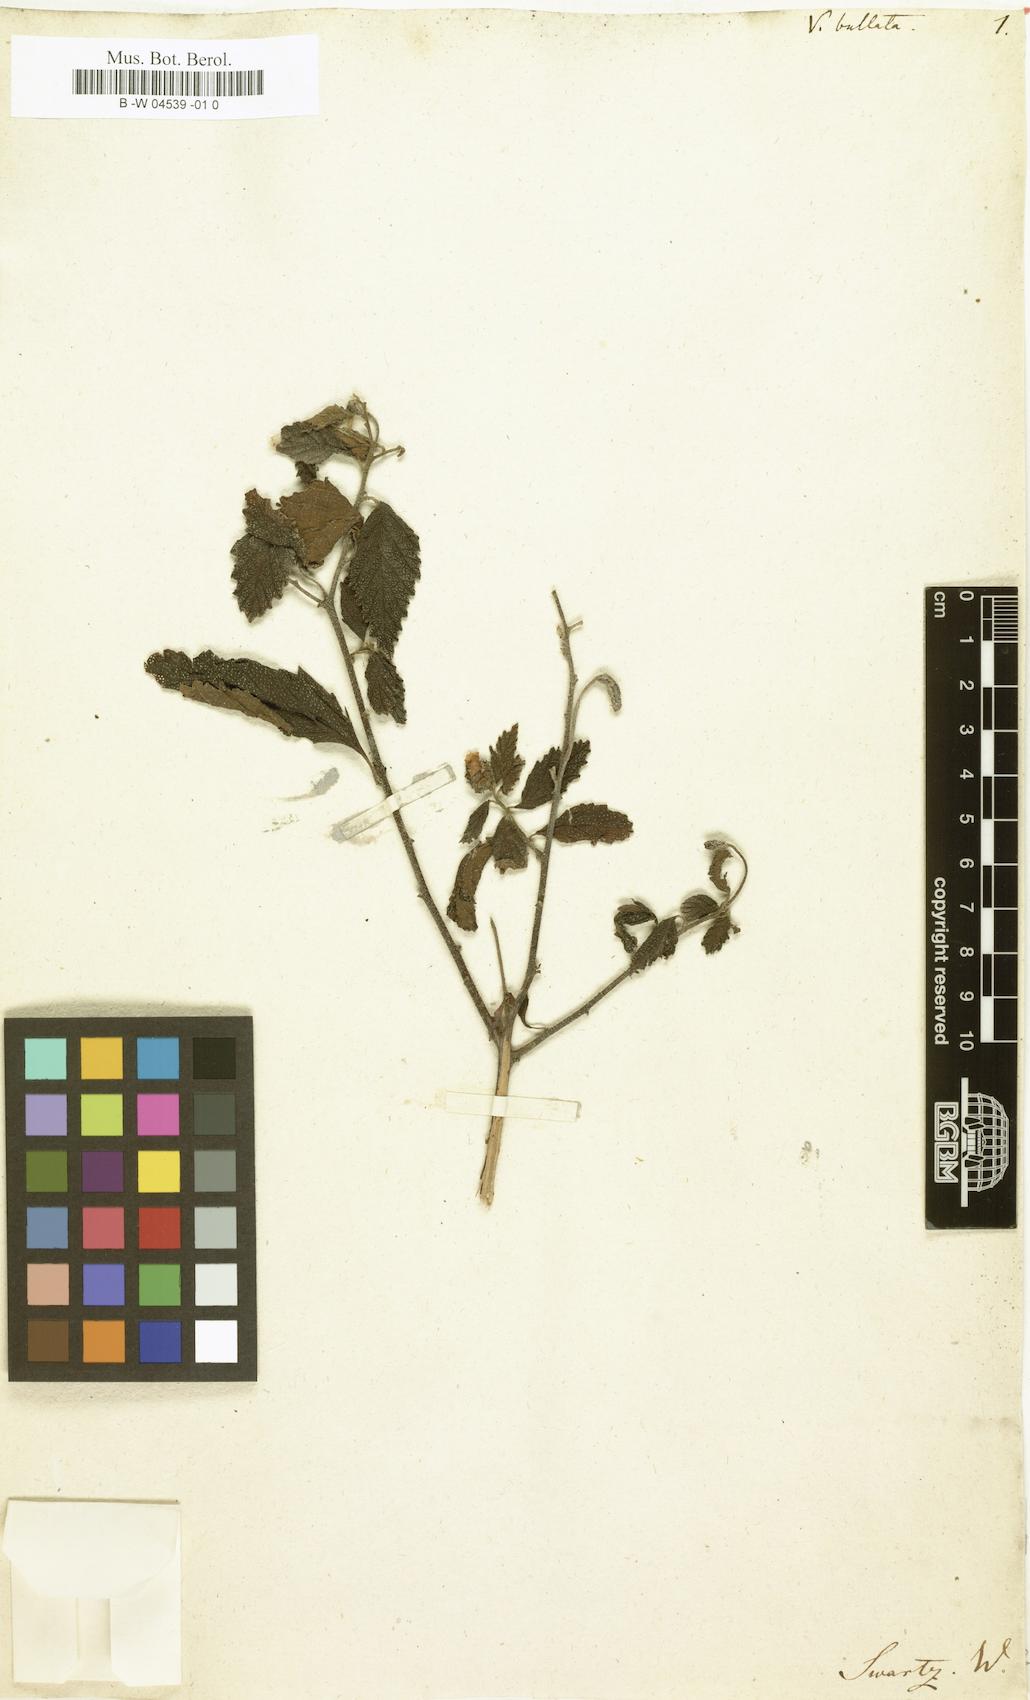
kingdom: Plantae
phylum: Tracheophyta
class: Magnoliopsida
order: Boraginales
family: Cordiaceae
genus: Varronia
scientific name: Varronia bullata
